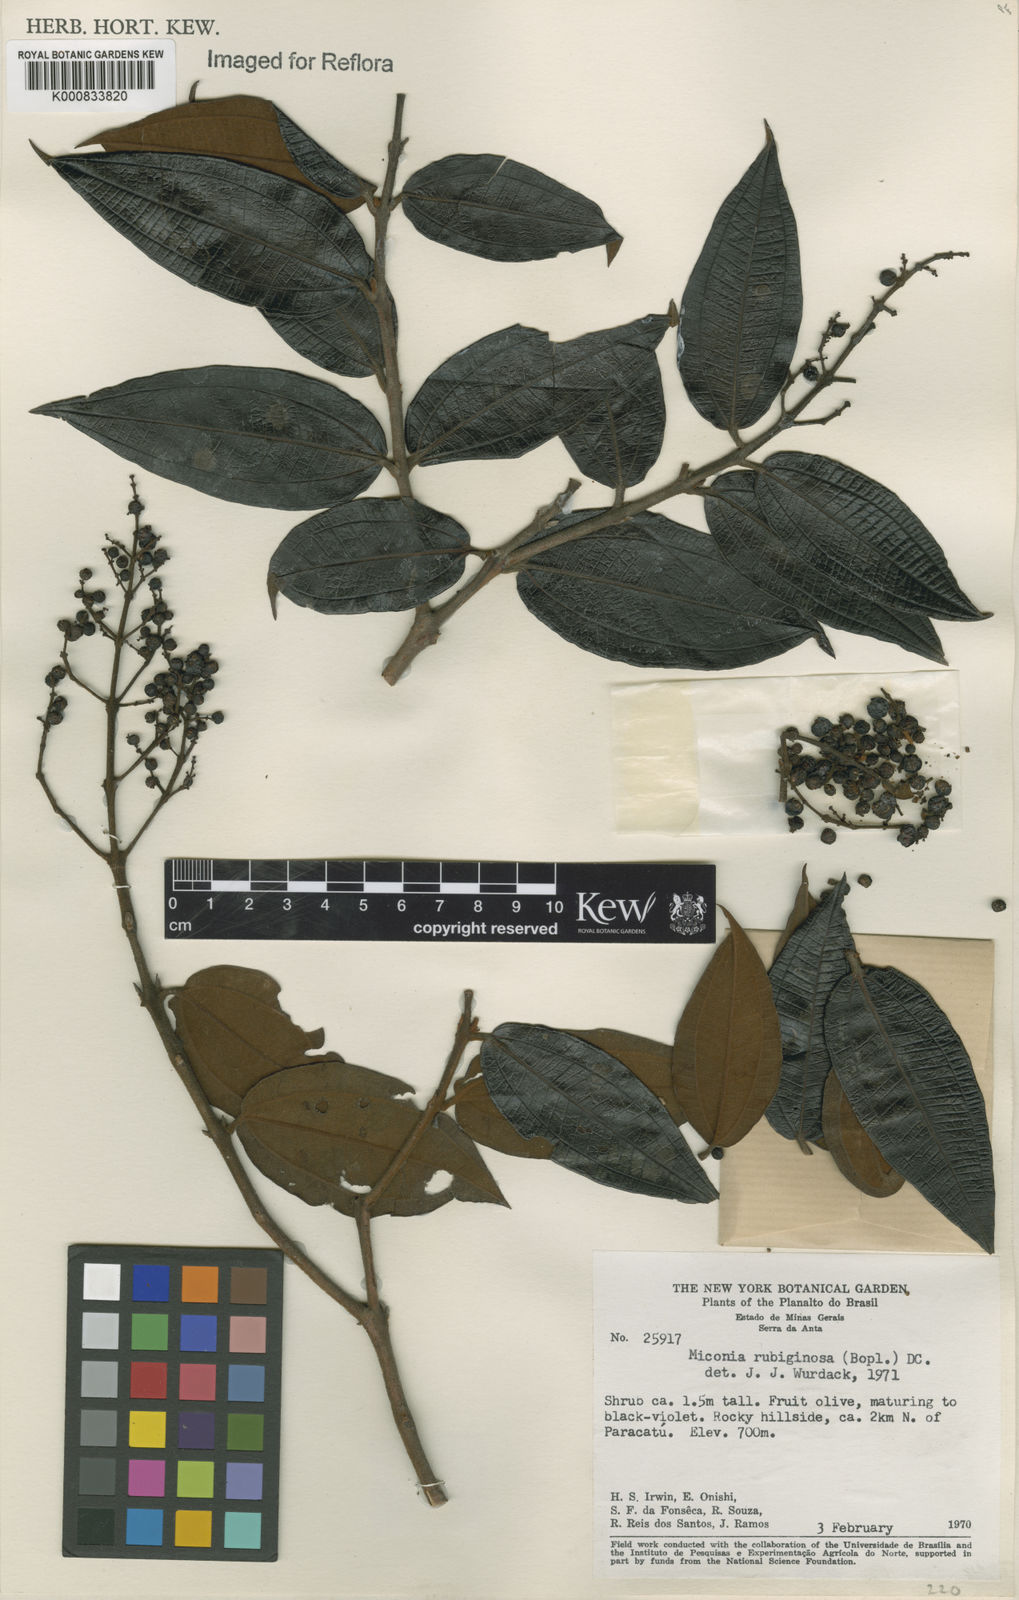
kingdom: Plantae
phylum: Tracheophyta
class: Magnoliopsida
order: Myrtales
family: Melastomataceae
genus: Miconia
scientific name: Miconia rubiginosa
